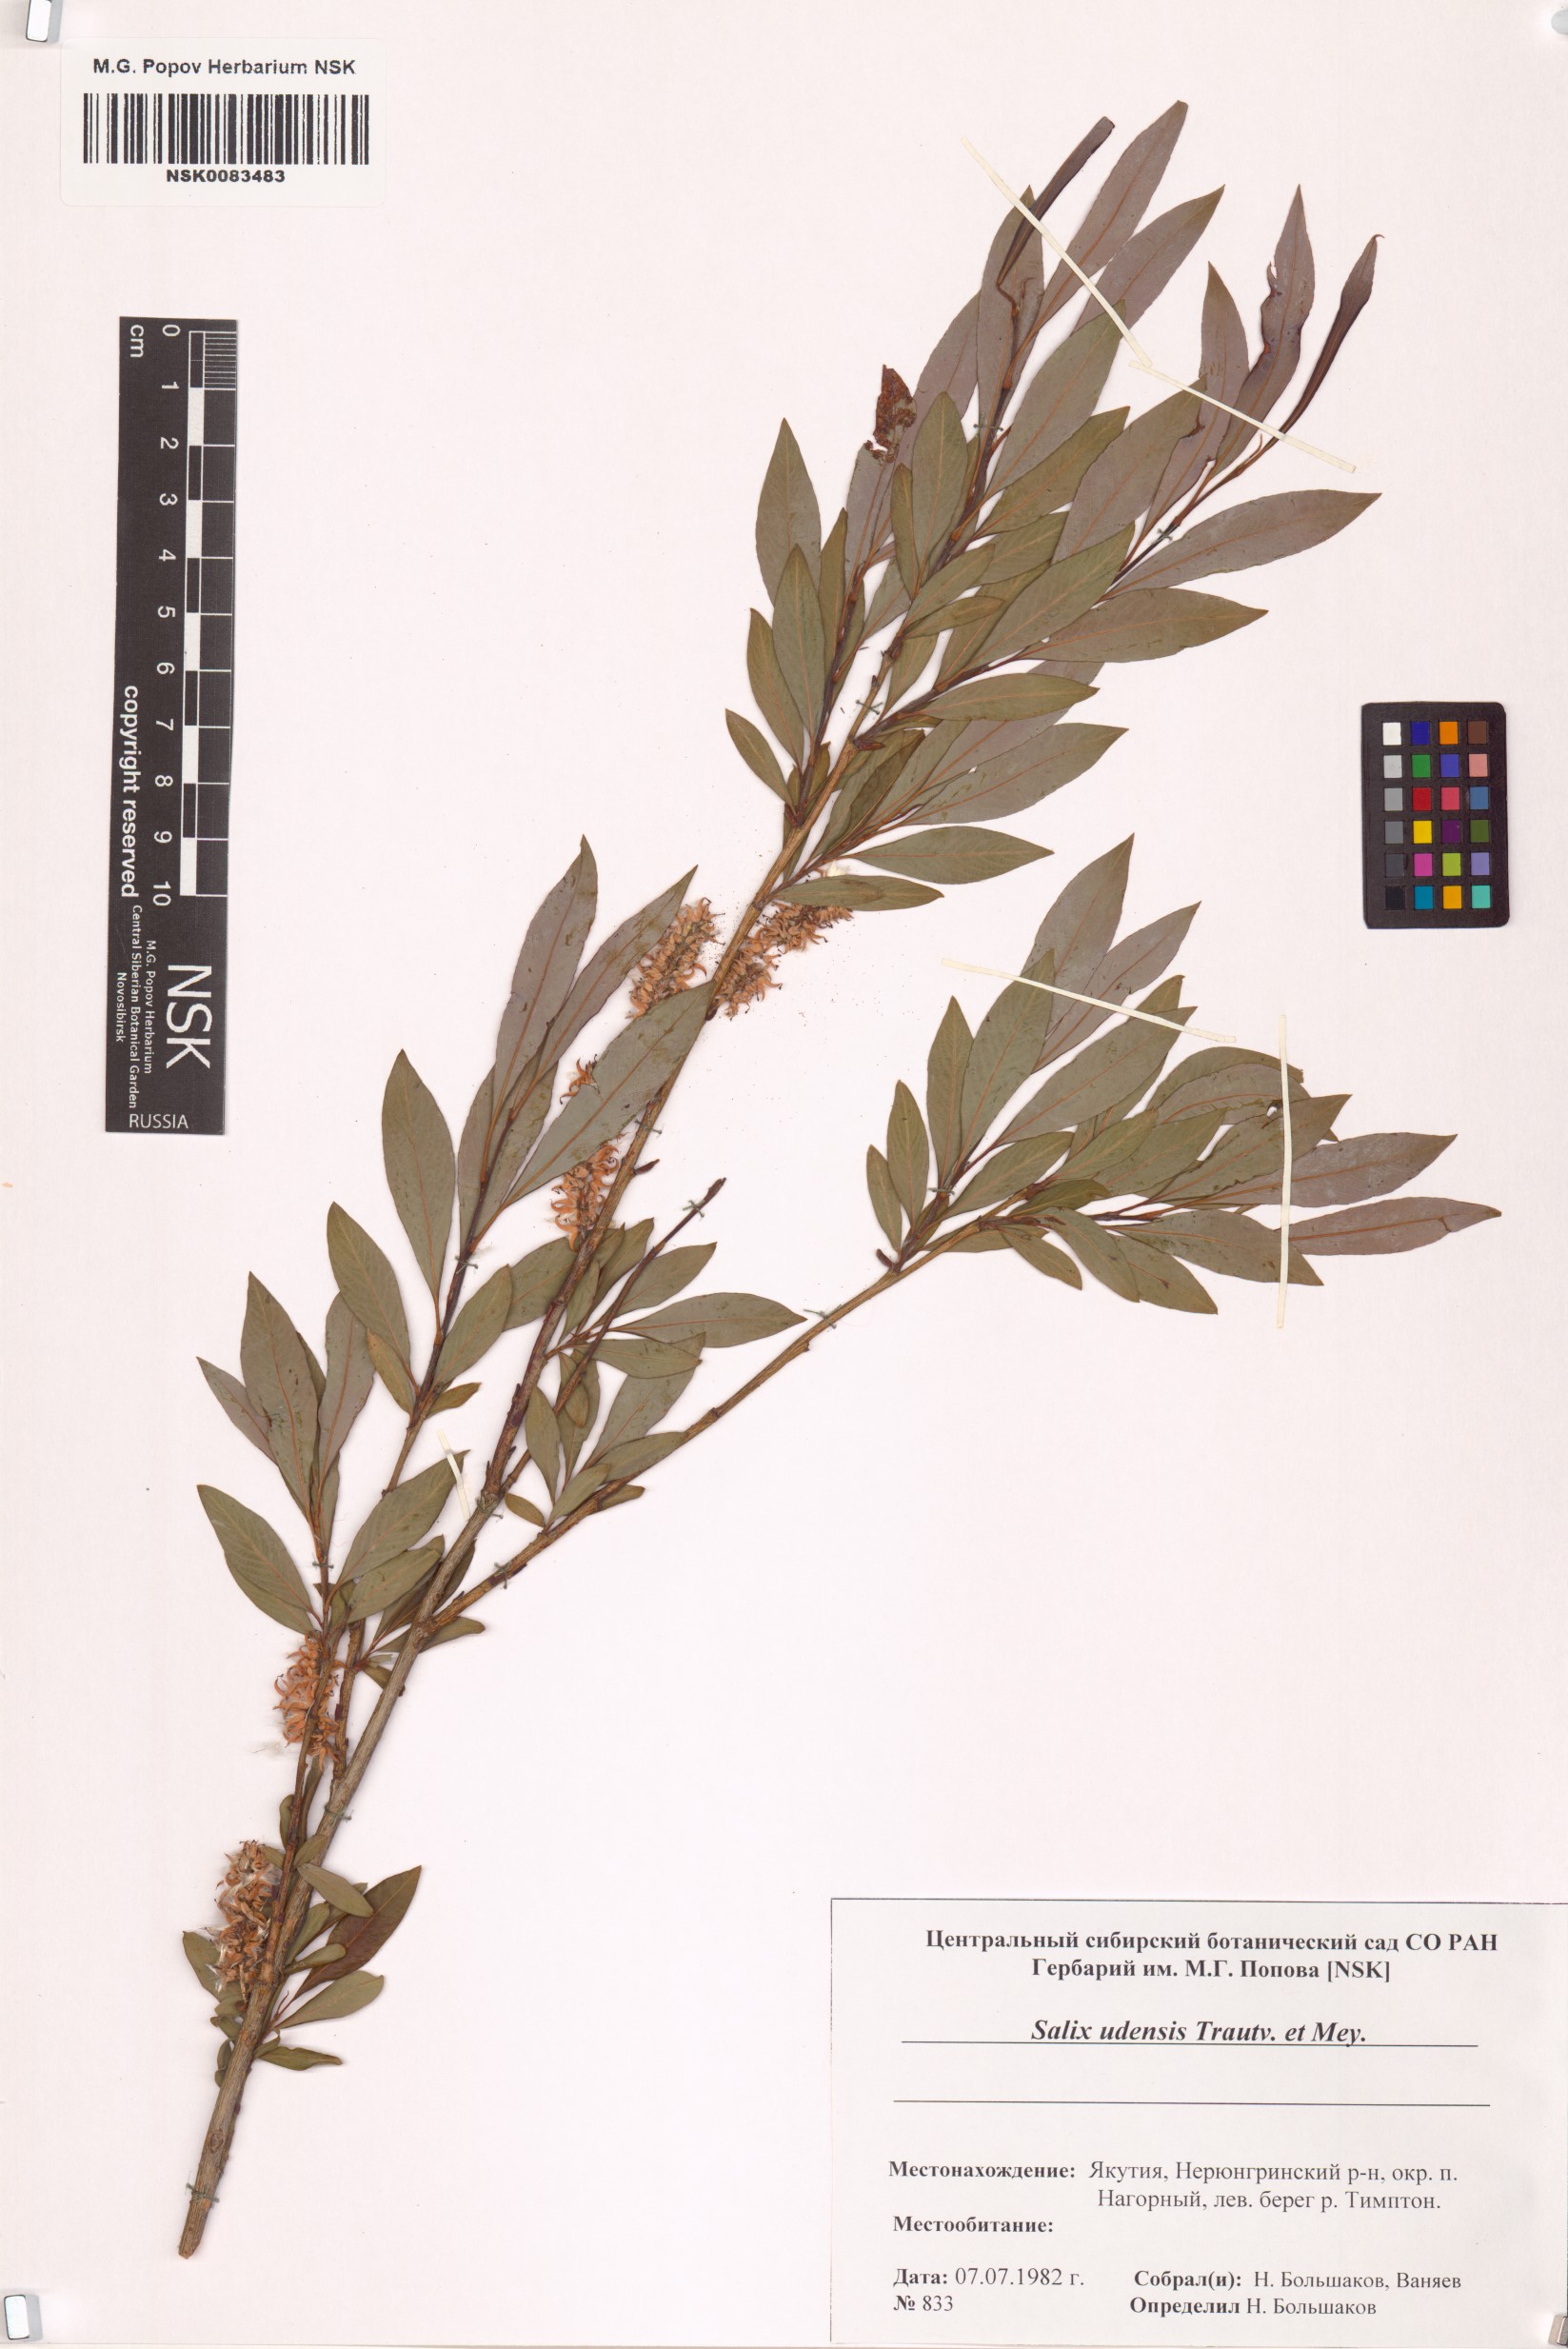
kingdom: Plantae
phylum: Tracheophyta
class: Magnoliopsida
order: Malpighiales
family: Salicaceae
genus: Salix
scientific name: Salix udensis
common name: Sachalin willow
